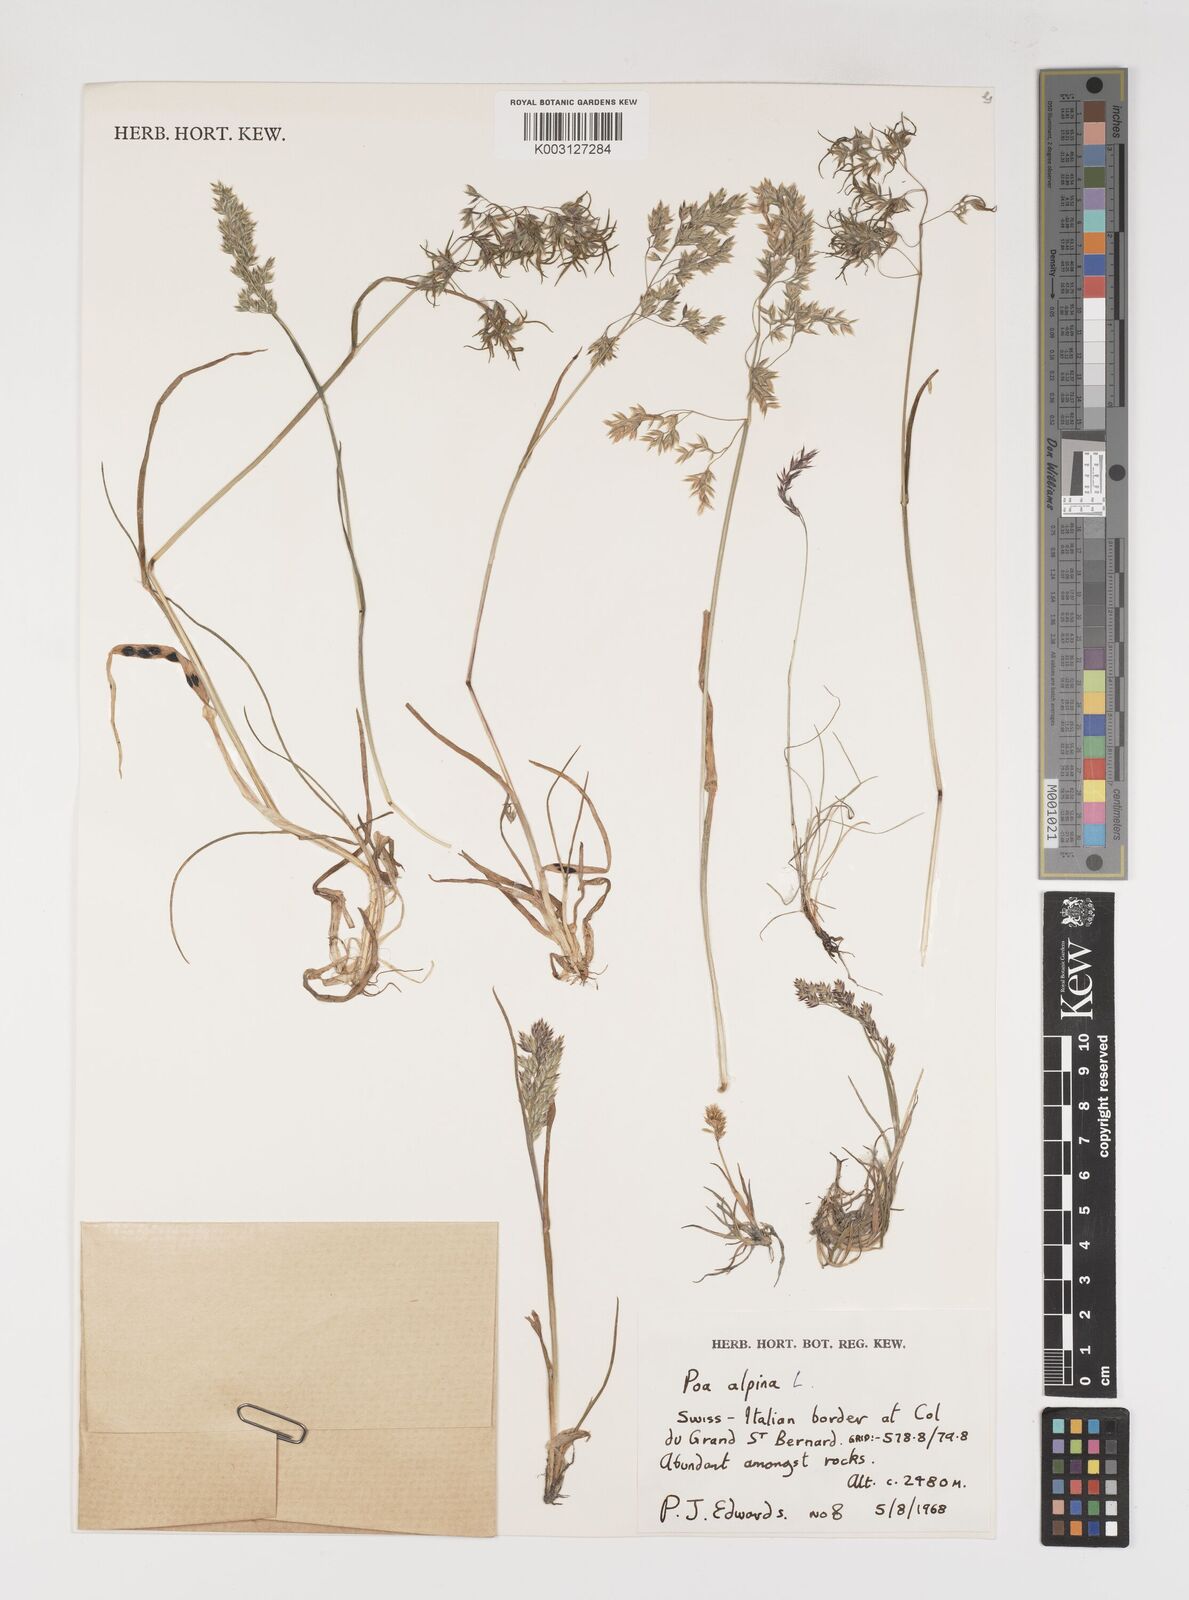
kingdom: Plantae
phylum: Tracheophyta
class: Liliopsida
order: Poales
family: Poaceae
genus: Poa
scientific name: Poa alpina
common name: Alpine bluegrass
